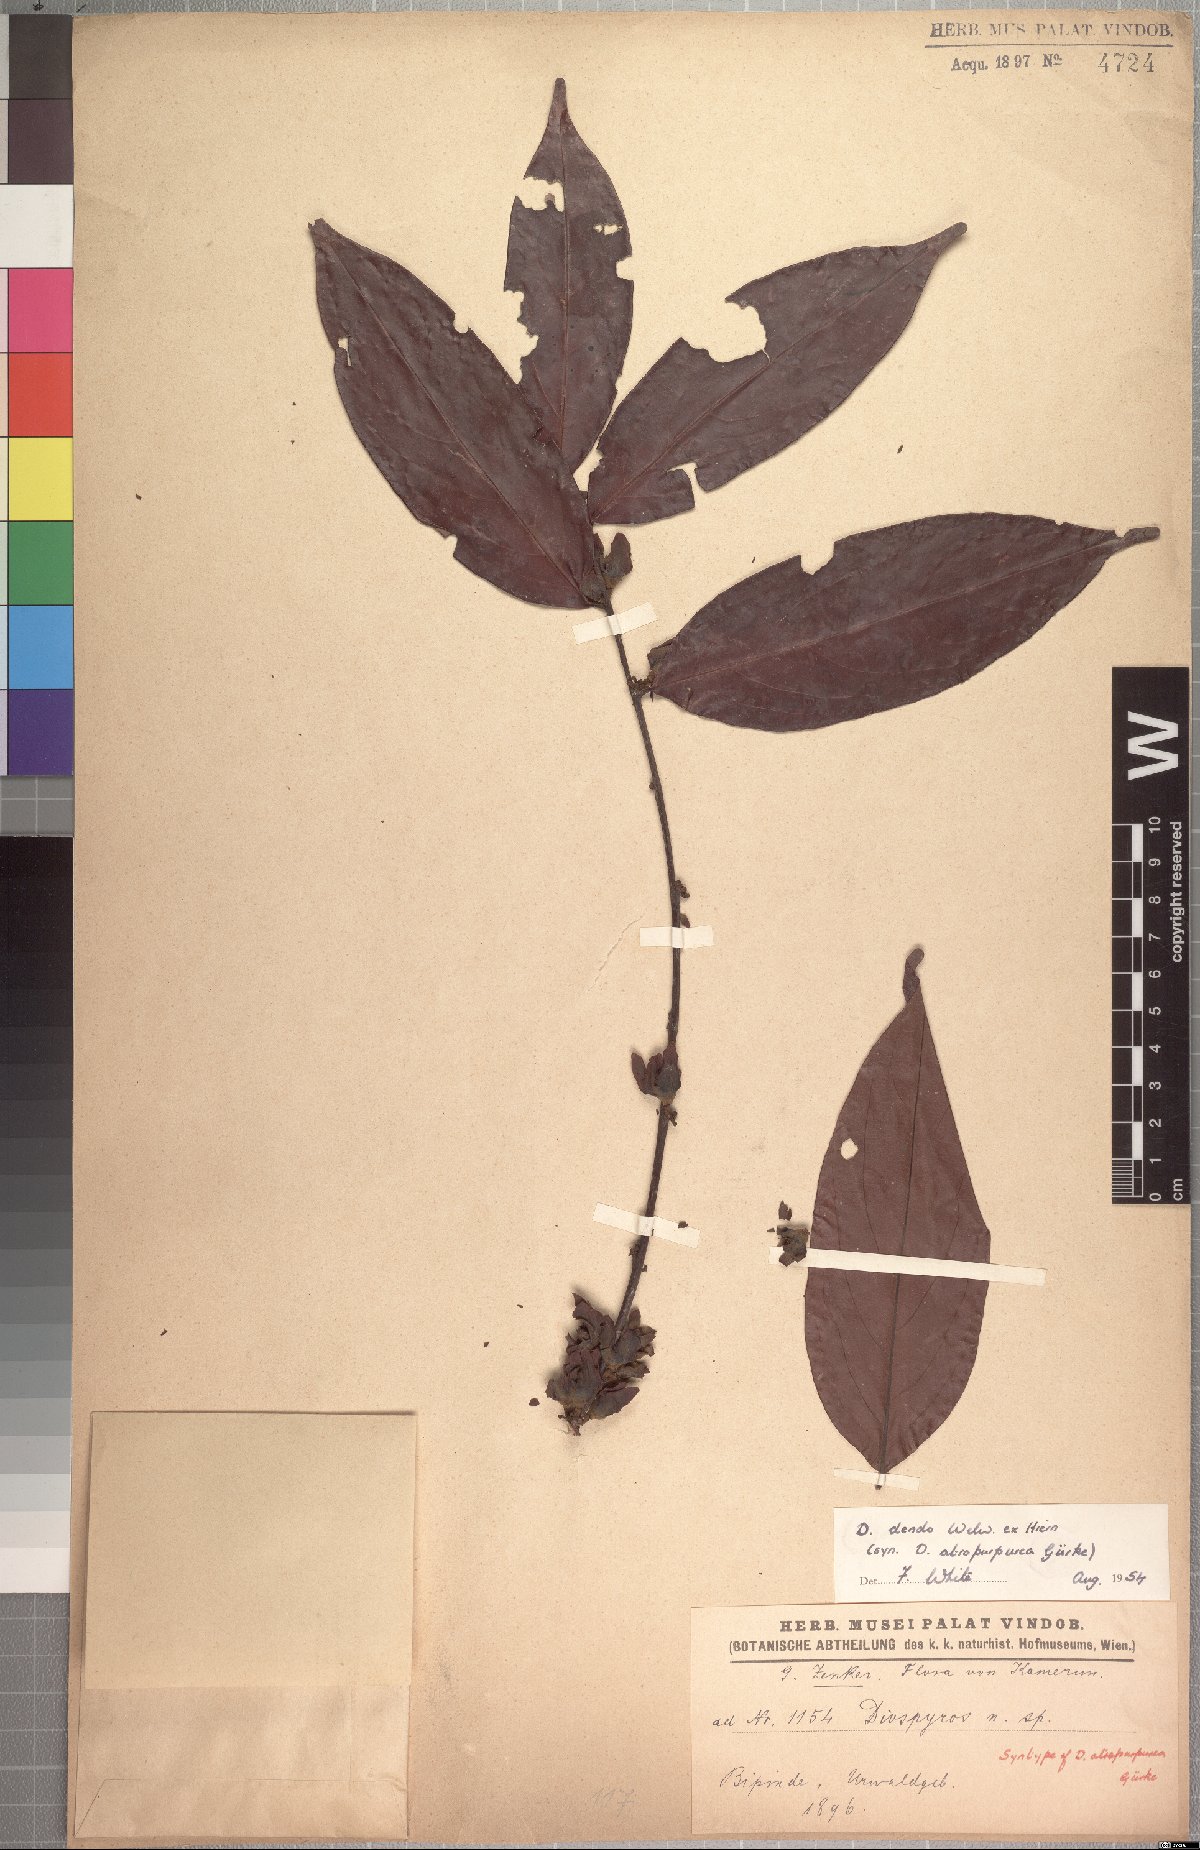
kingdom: Plantae
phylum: Tracheophyta
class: Magnoliopsida
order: Ericales
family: Ebenaceae
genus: Diospyros
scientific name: Diospyros dendo
